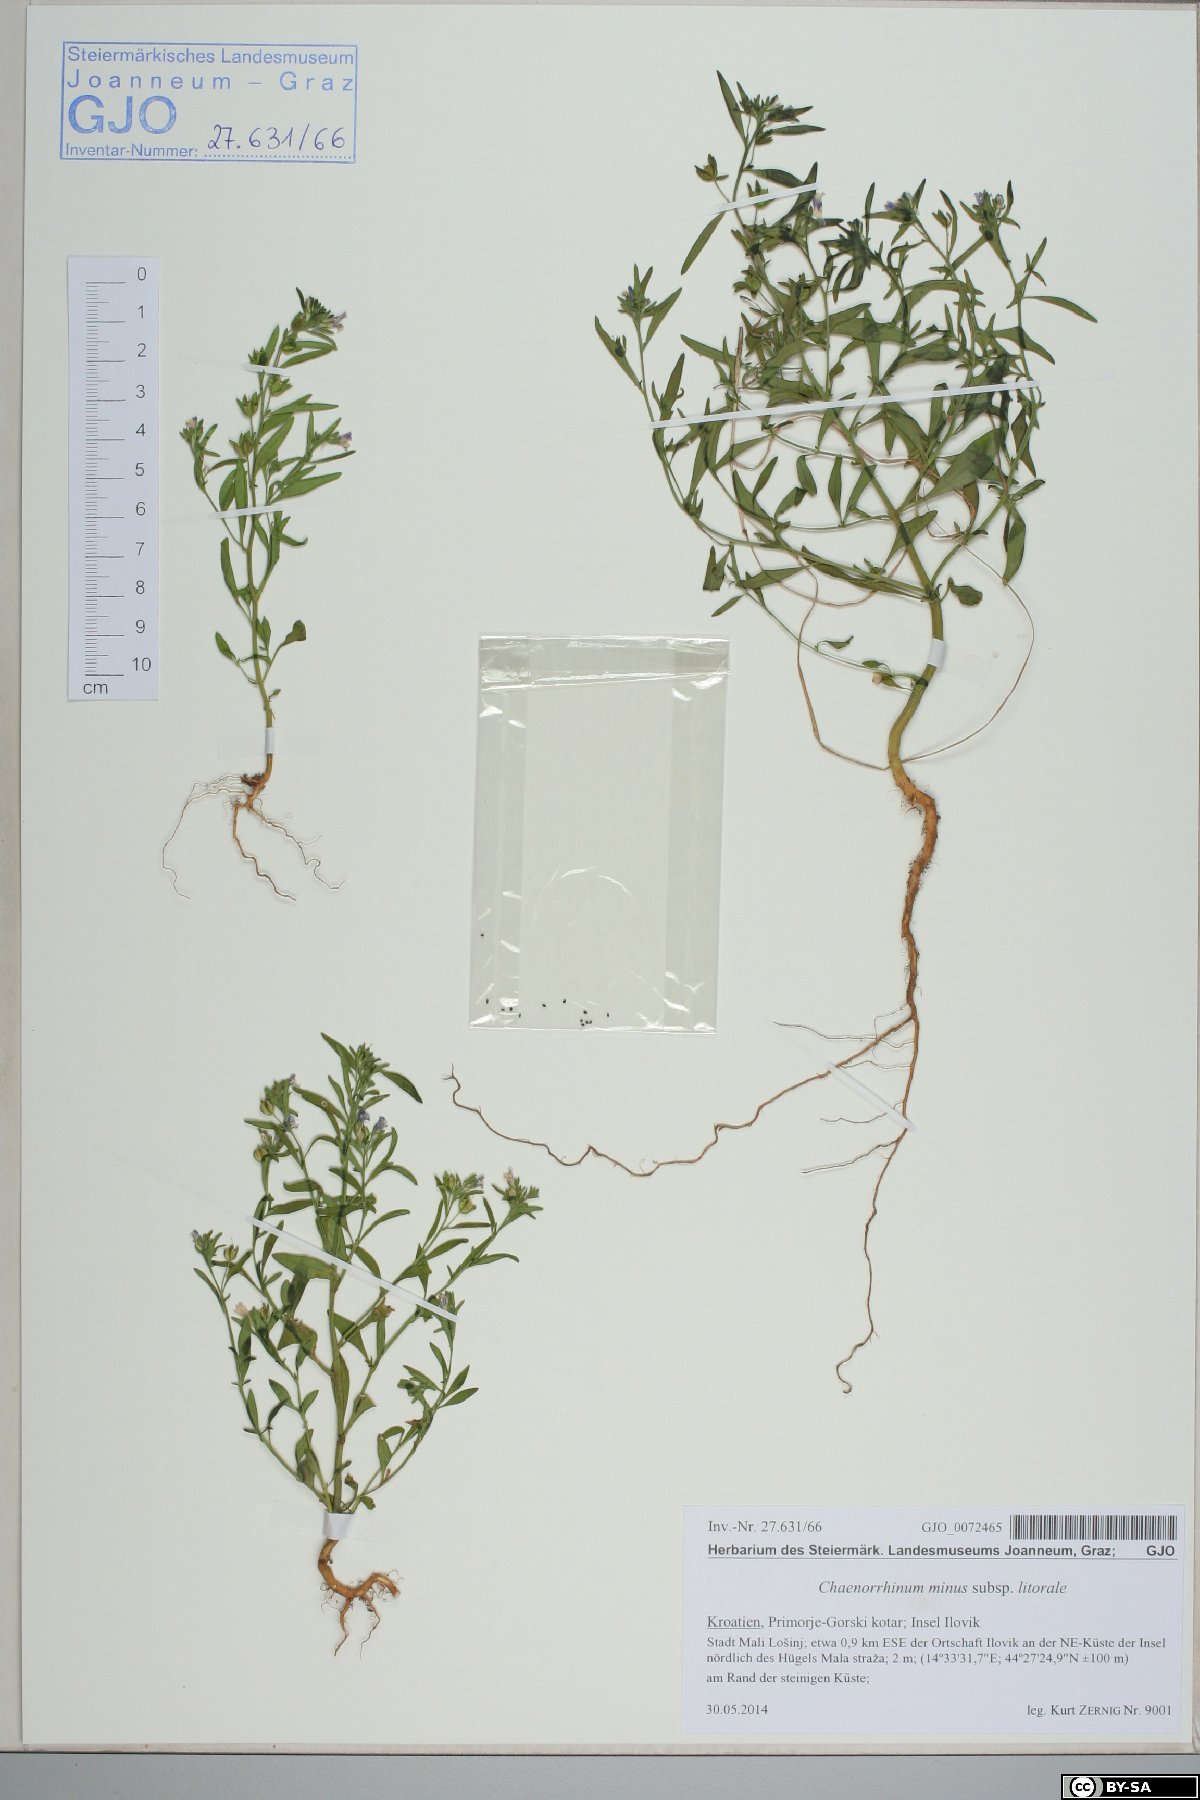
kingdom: Plantae
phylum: Tracheophyta
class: Magnoliopsida
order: Lamiales
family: Plantaginaceae
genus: Chaenorhinum
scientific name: Chaenorhinum litorale
